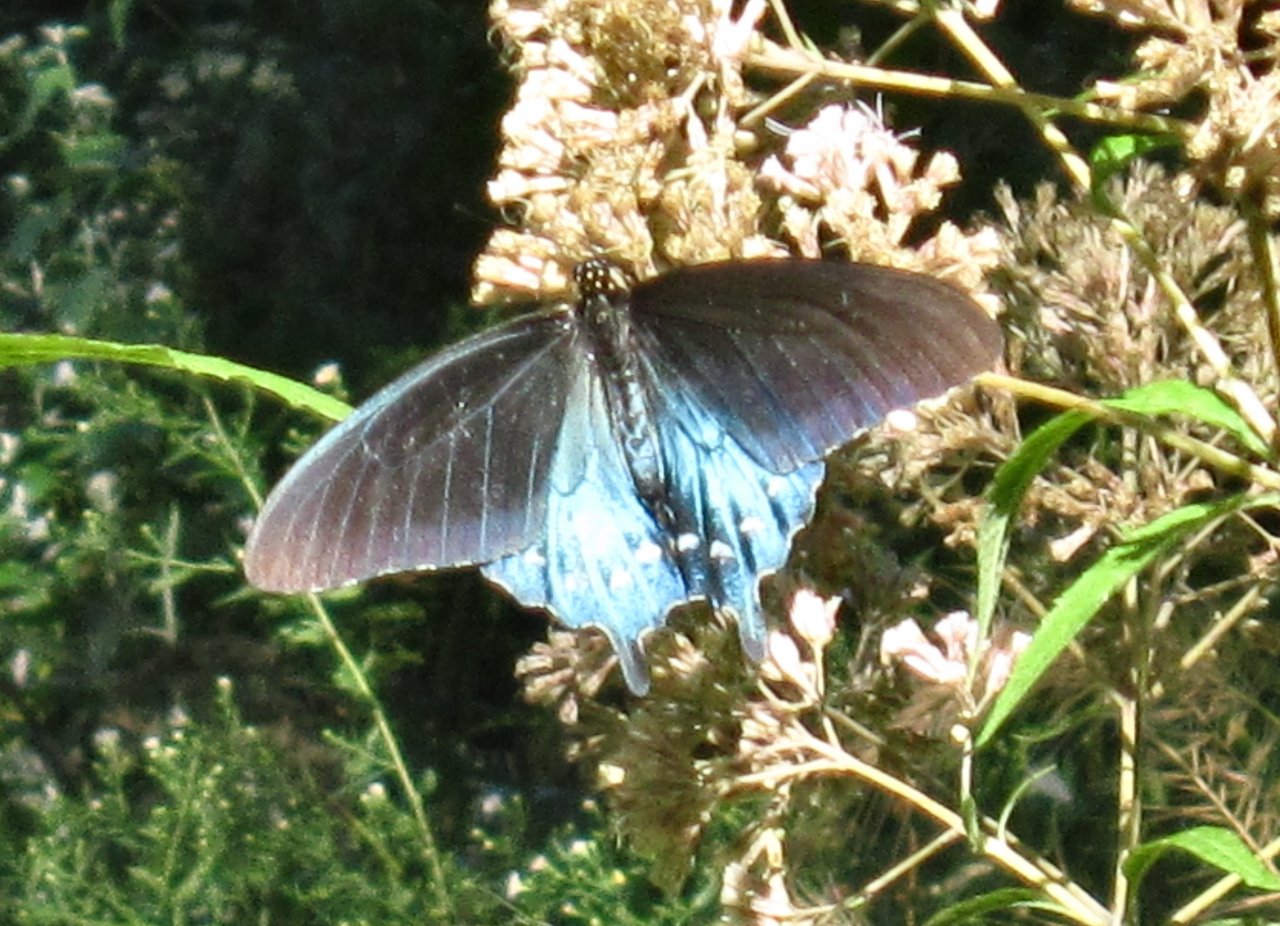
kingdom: Animalia
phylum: Arthropoda
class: Insecta
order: Lepidoptera
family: Papilionidae
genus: Battus
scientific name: Battus philenor
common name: Pipevine Swallowtail
